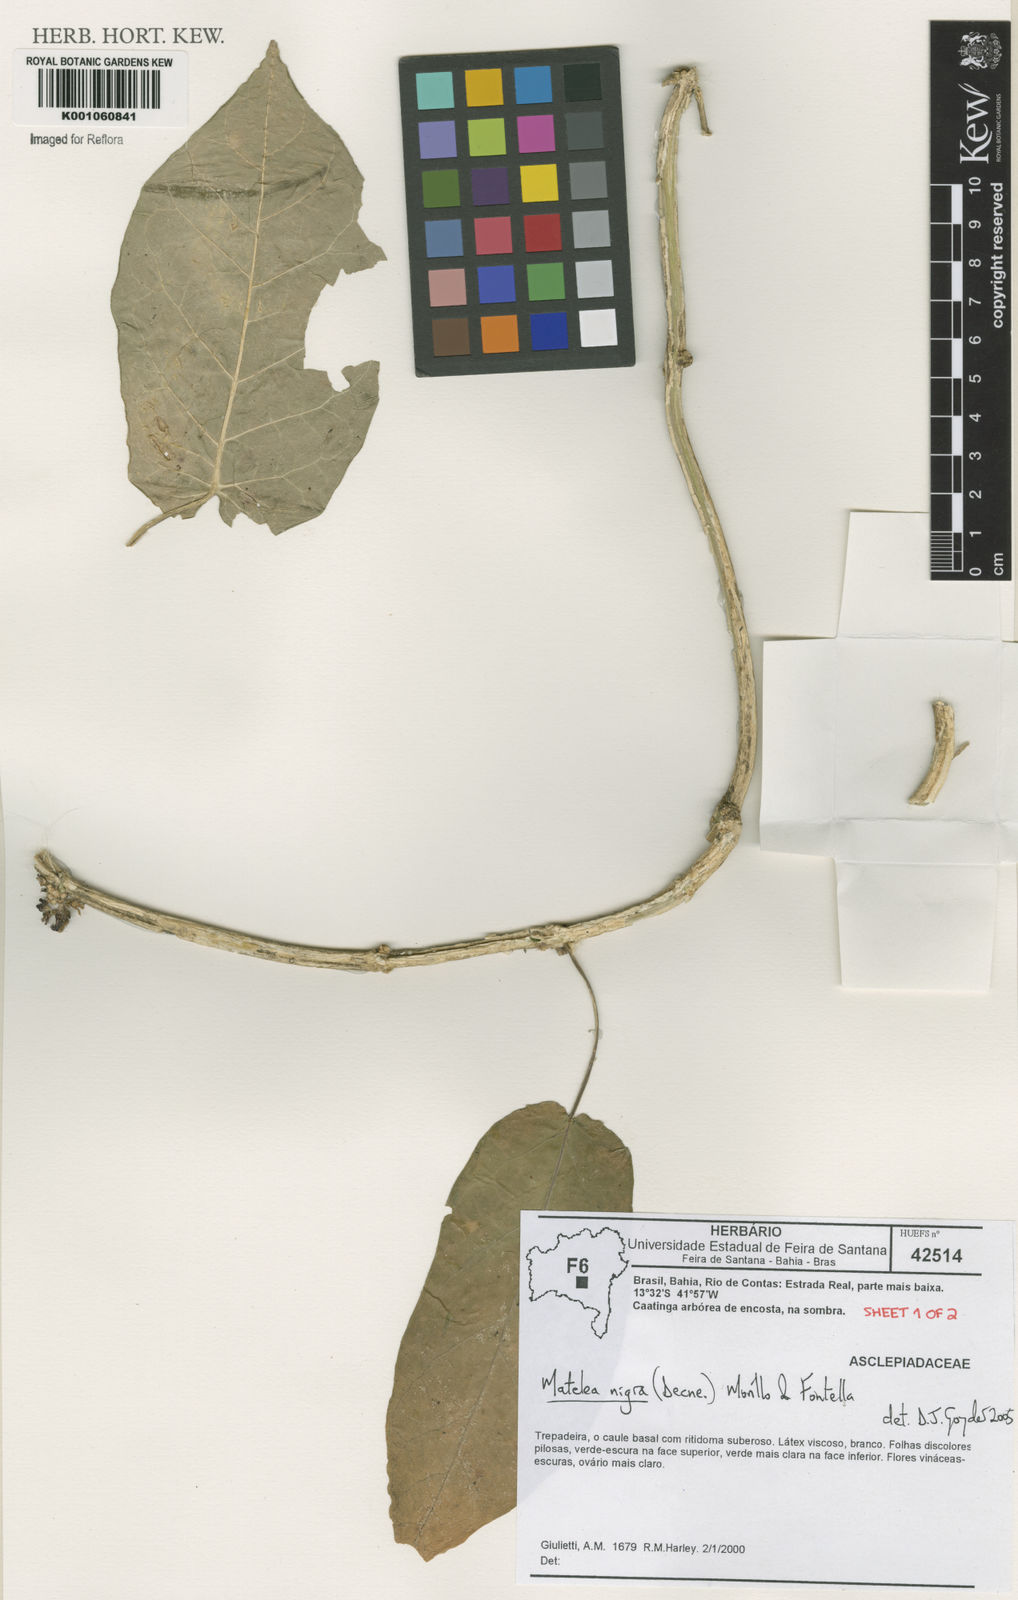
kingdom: Plantae
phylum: Tracheophyta
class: Magnoliopsida
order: Gentianales
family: Apocynaceae
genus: Ibatia
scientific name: Ibatia nigra
